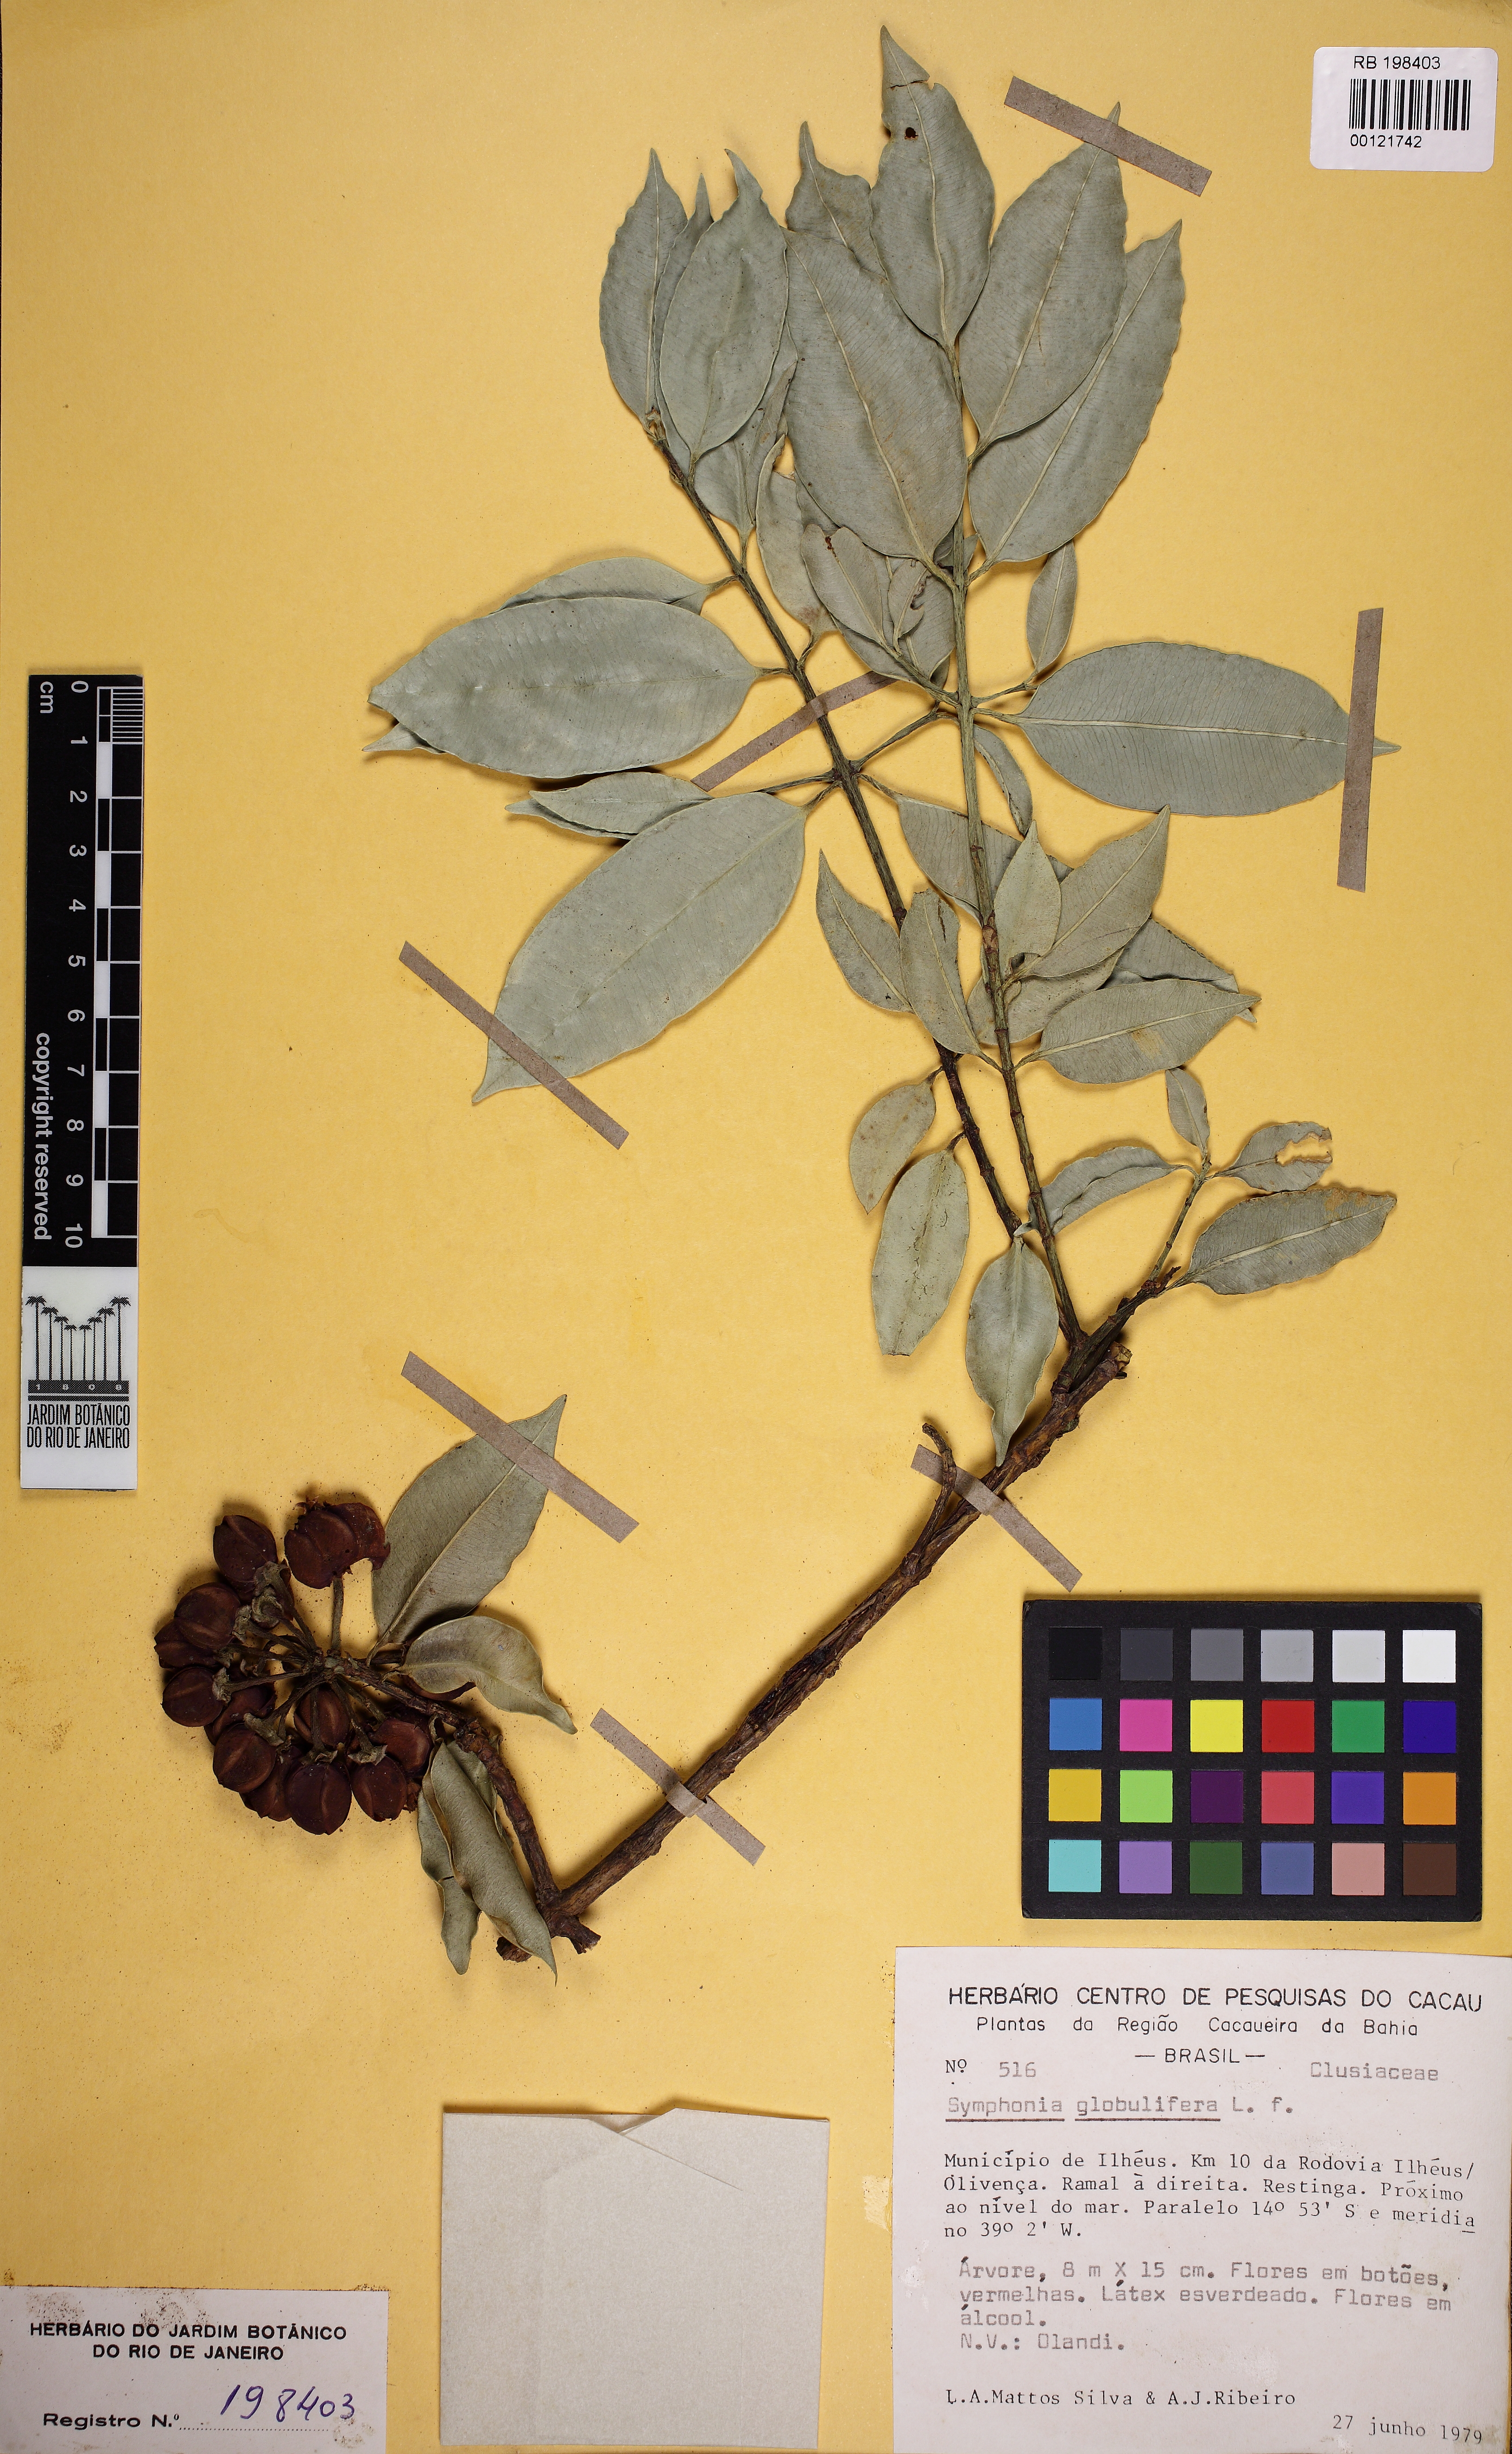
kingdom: Plantae
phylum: Tracheophyta
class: Magnoliopsida
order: Malpighiales
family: Clusiaceae
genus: Symphonia
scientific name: Symphonia globulifera
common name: Boarwood
